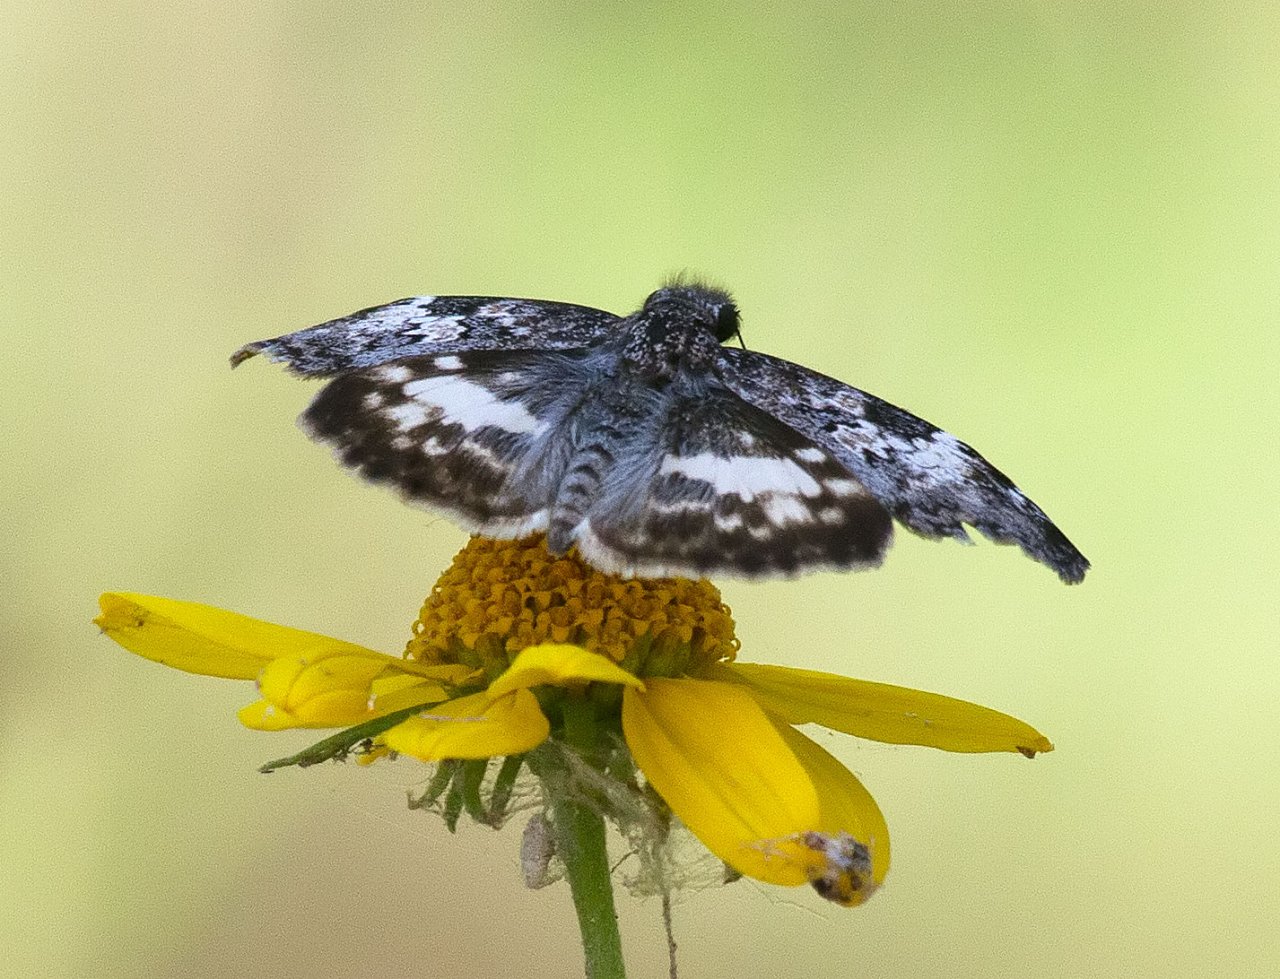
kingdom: Animalia
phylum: Arthropoda
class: Insecta
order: Lepidoptera
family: Hesperiidae
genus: Chiomara
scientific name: Chiomara asychis
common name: White-patched Skipper
